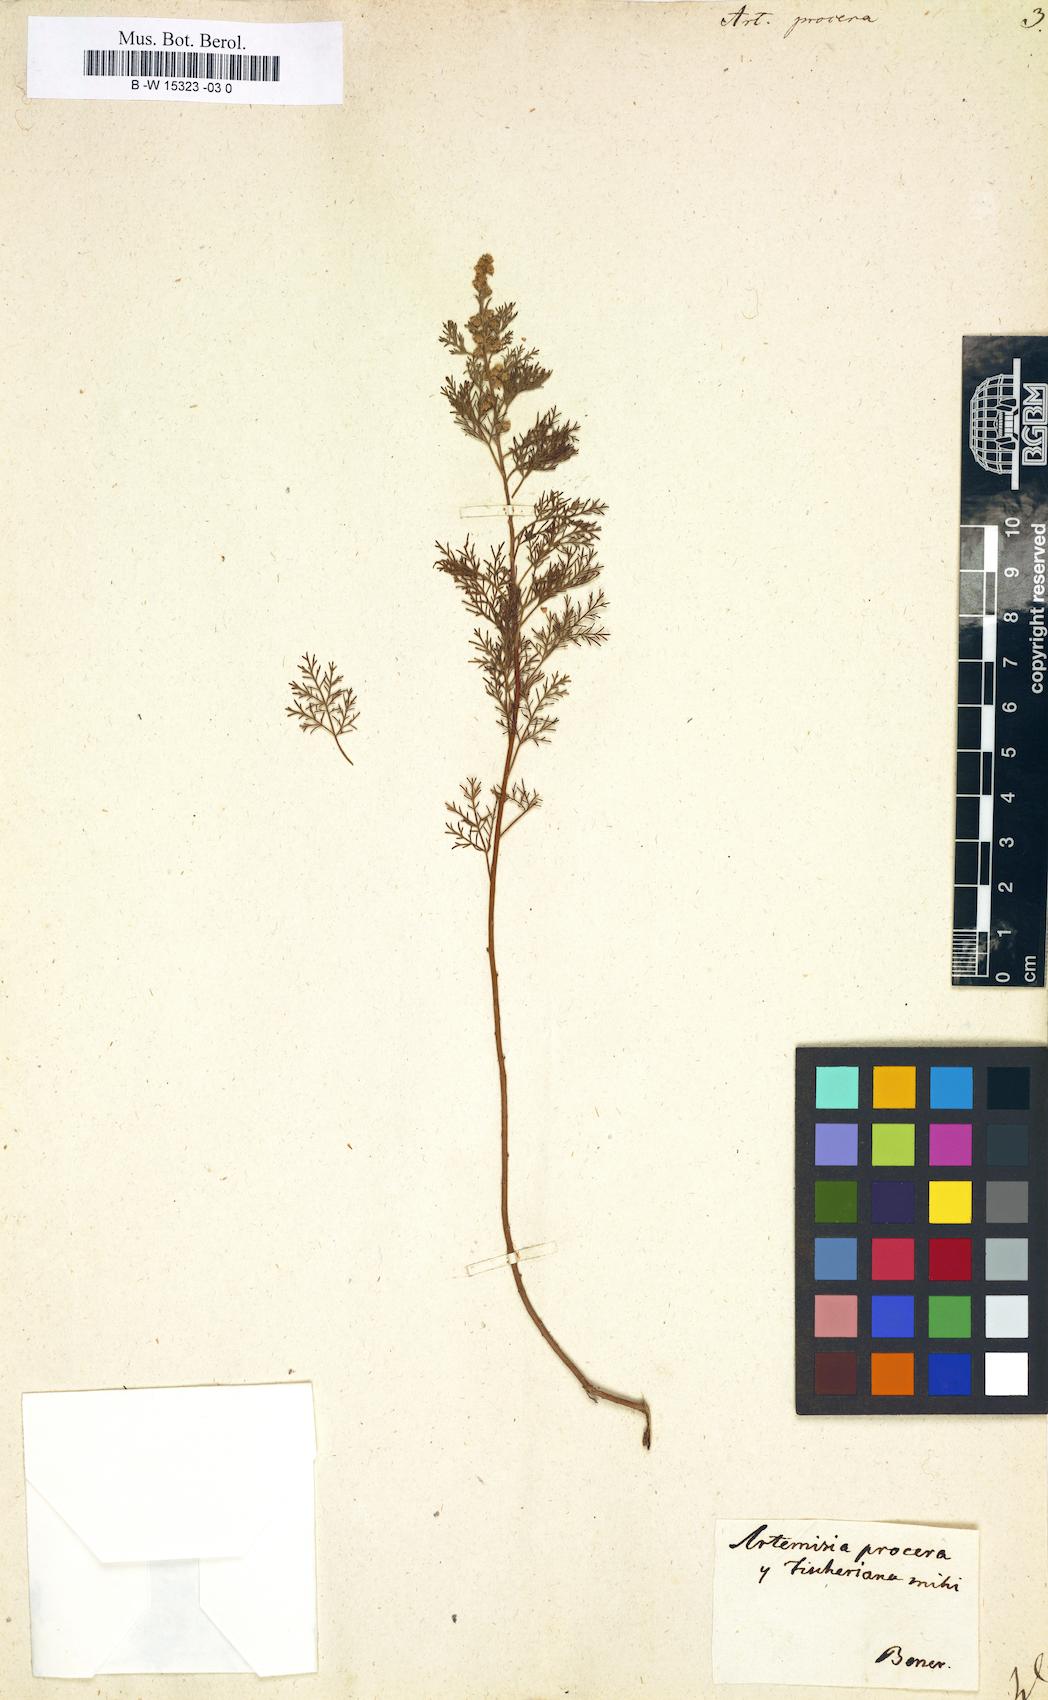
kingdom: Plantae
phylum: Tracheophyta
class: Magnoliopsida
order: Asterales
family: Asteraceae
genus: Artemisia
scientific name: Artemisia abrotanum
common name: Southernwood
